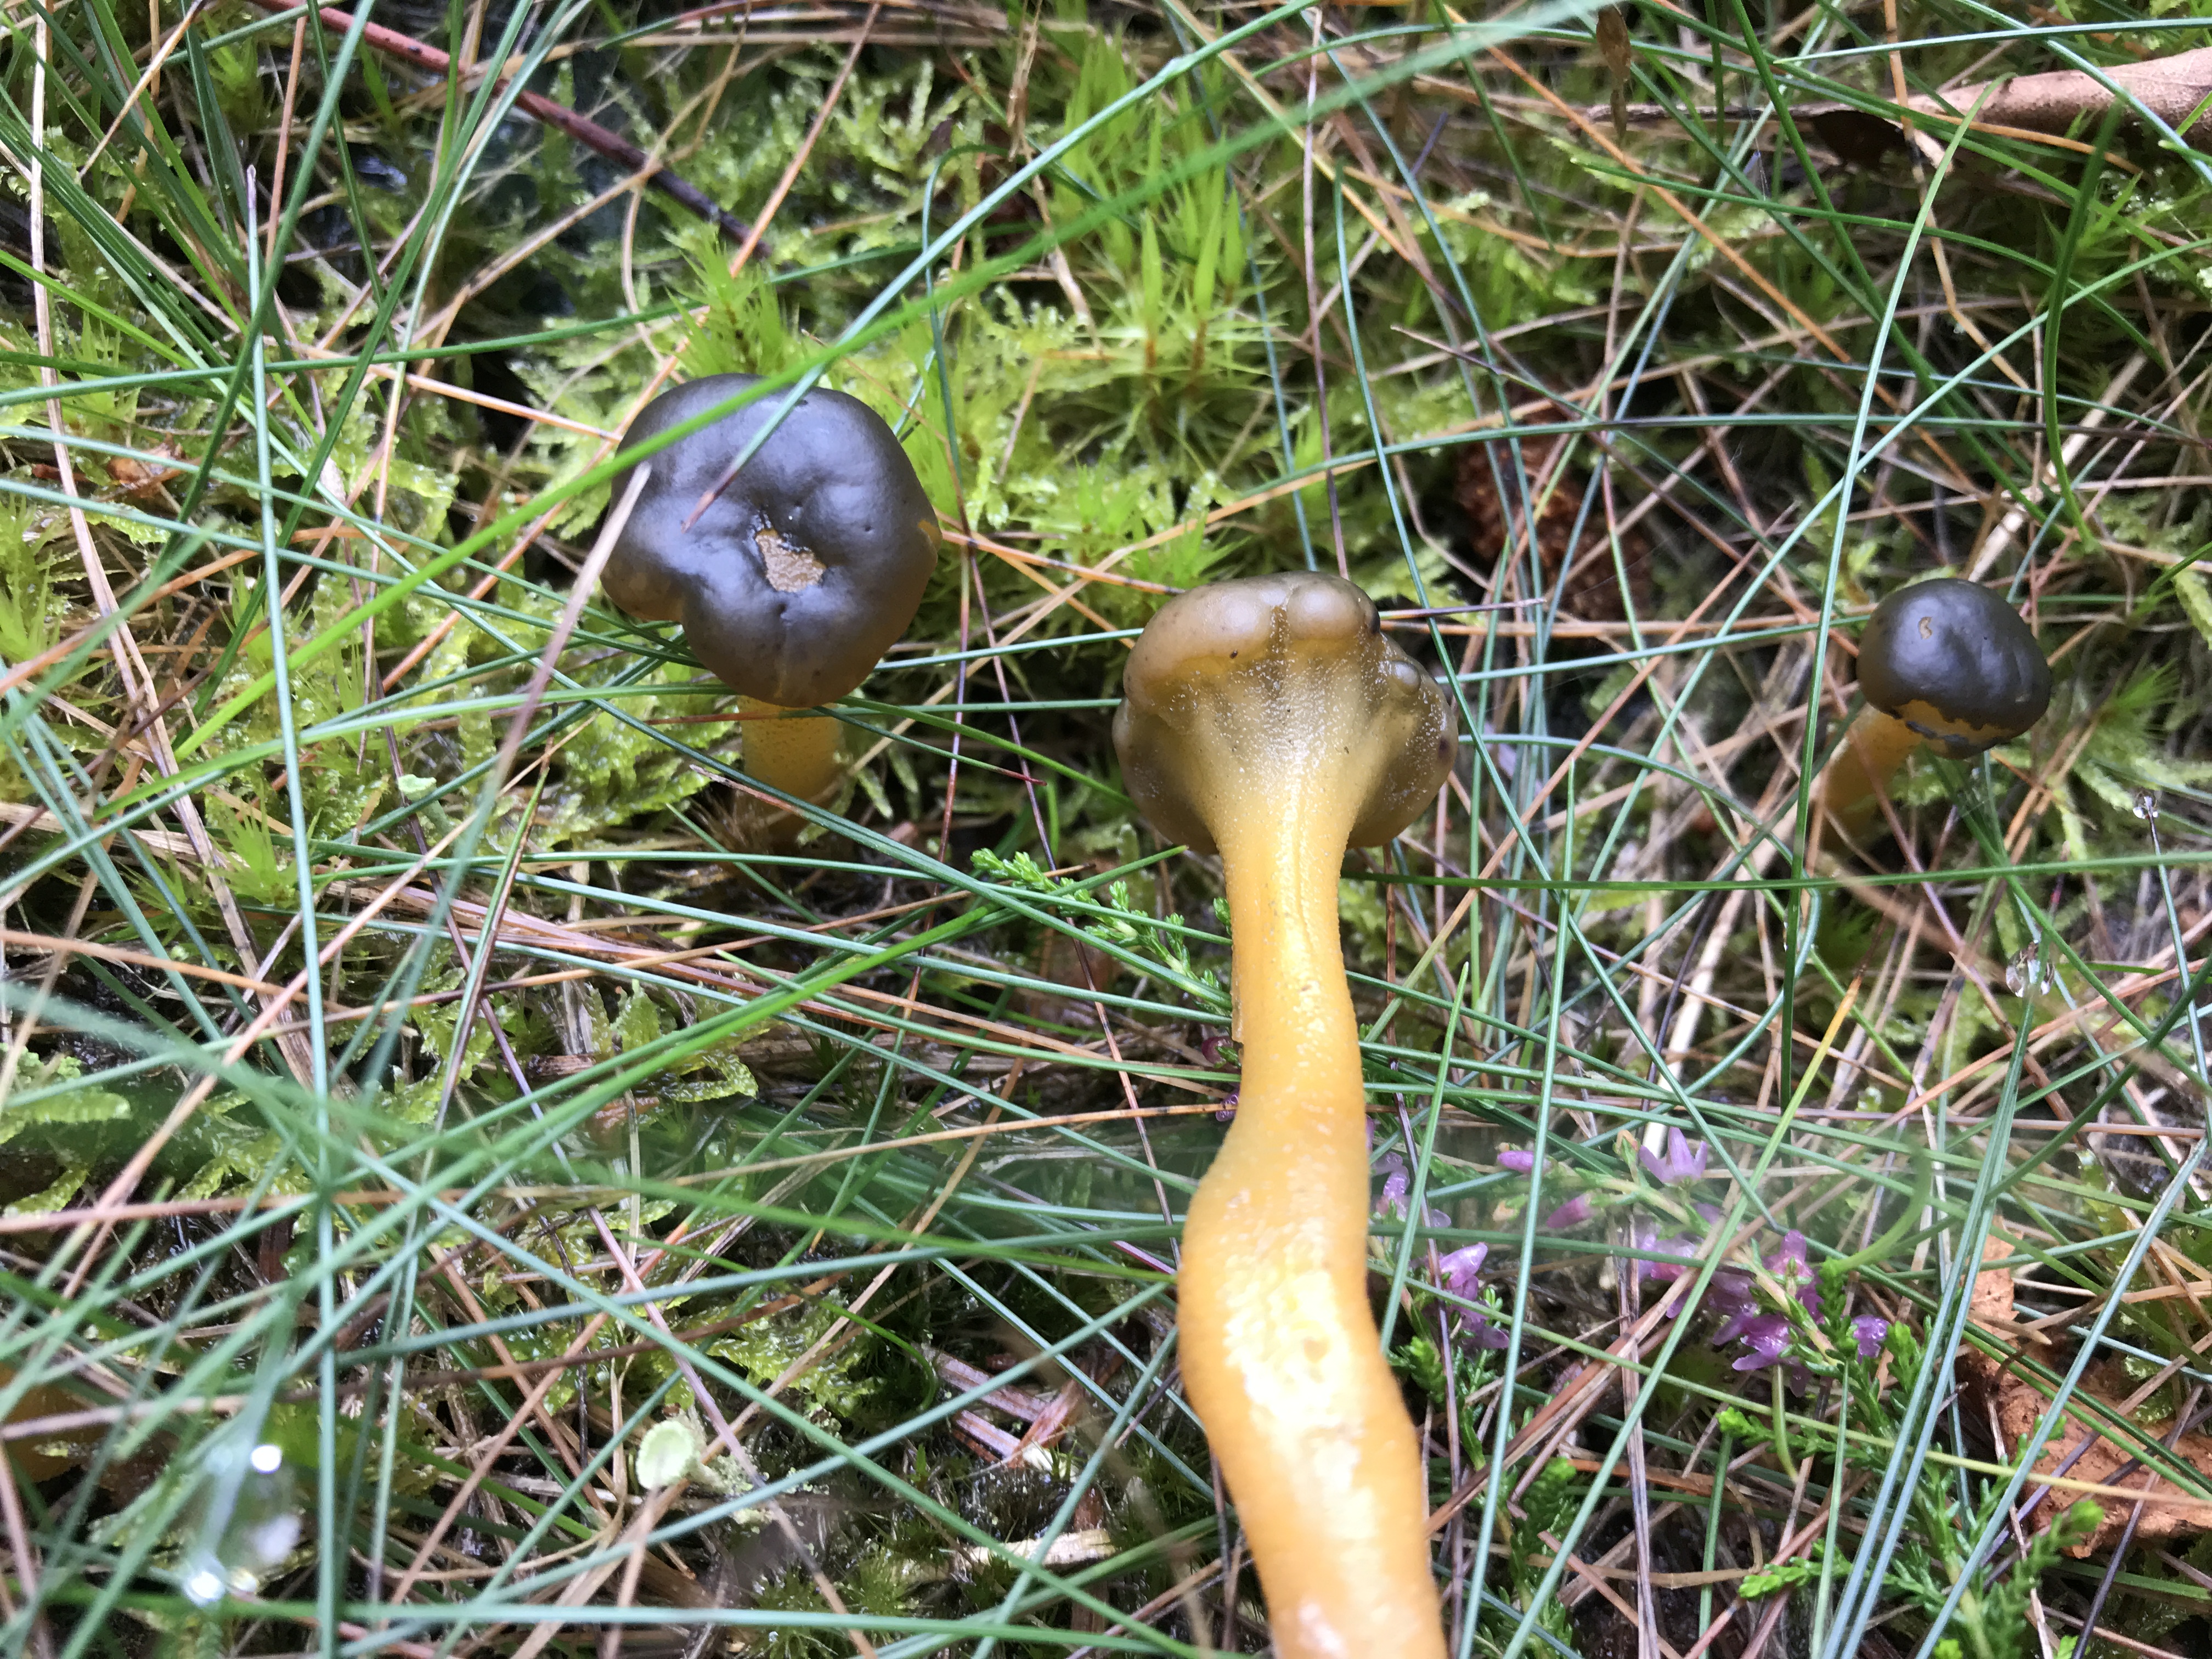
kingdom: Fungi
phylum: Ascomycota
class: Leotiomycetes
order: Leotiales
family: Leotiaceae
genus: Leotia
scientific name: Leotia lubrica
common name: ravsvamp
